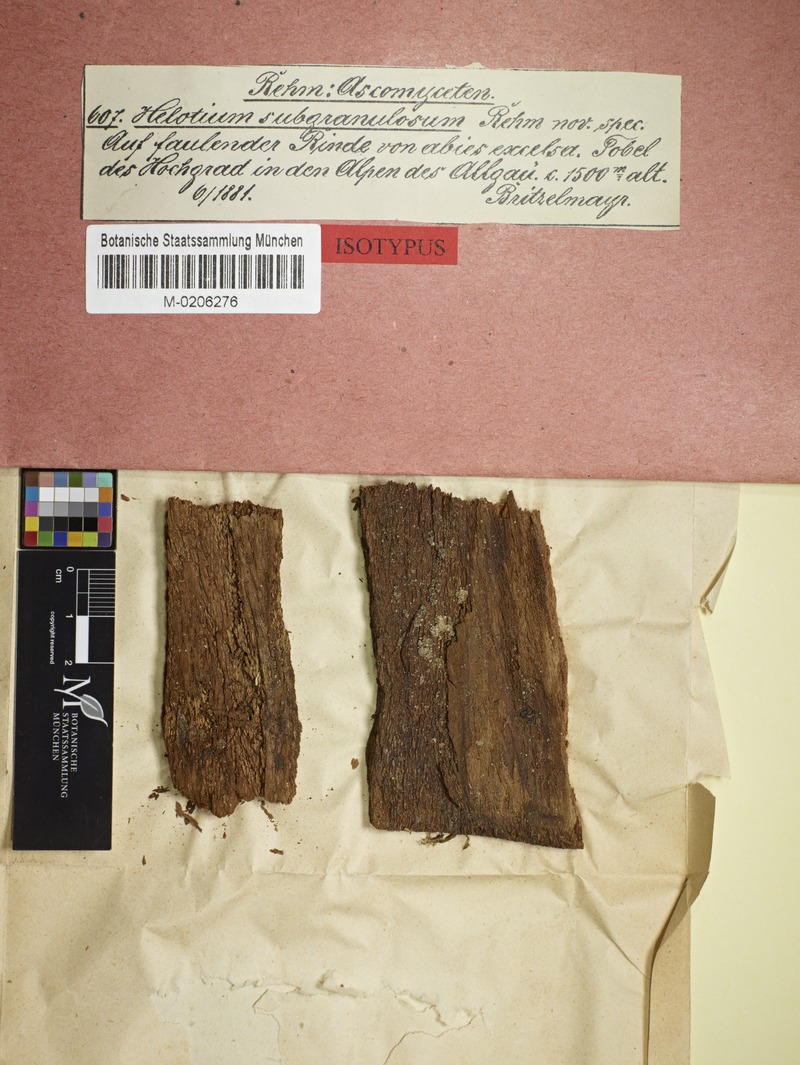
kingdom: Fungi
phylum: Ascomycota
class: Leotiomycetes
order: Helotiales
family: Calloriaceae
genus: Micropodia
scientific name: Micropodia subgranulosa
